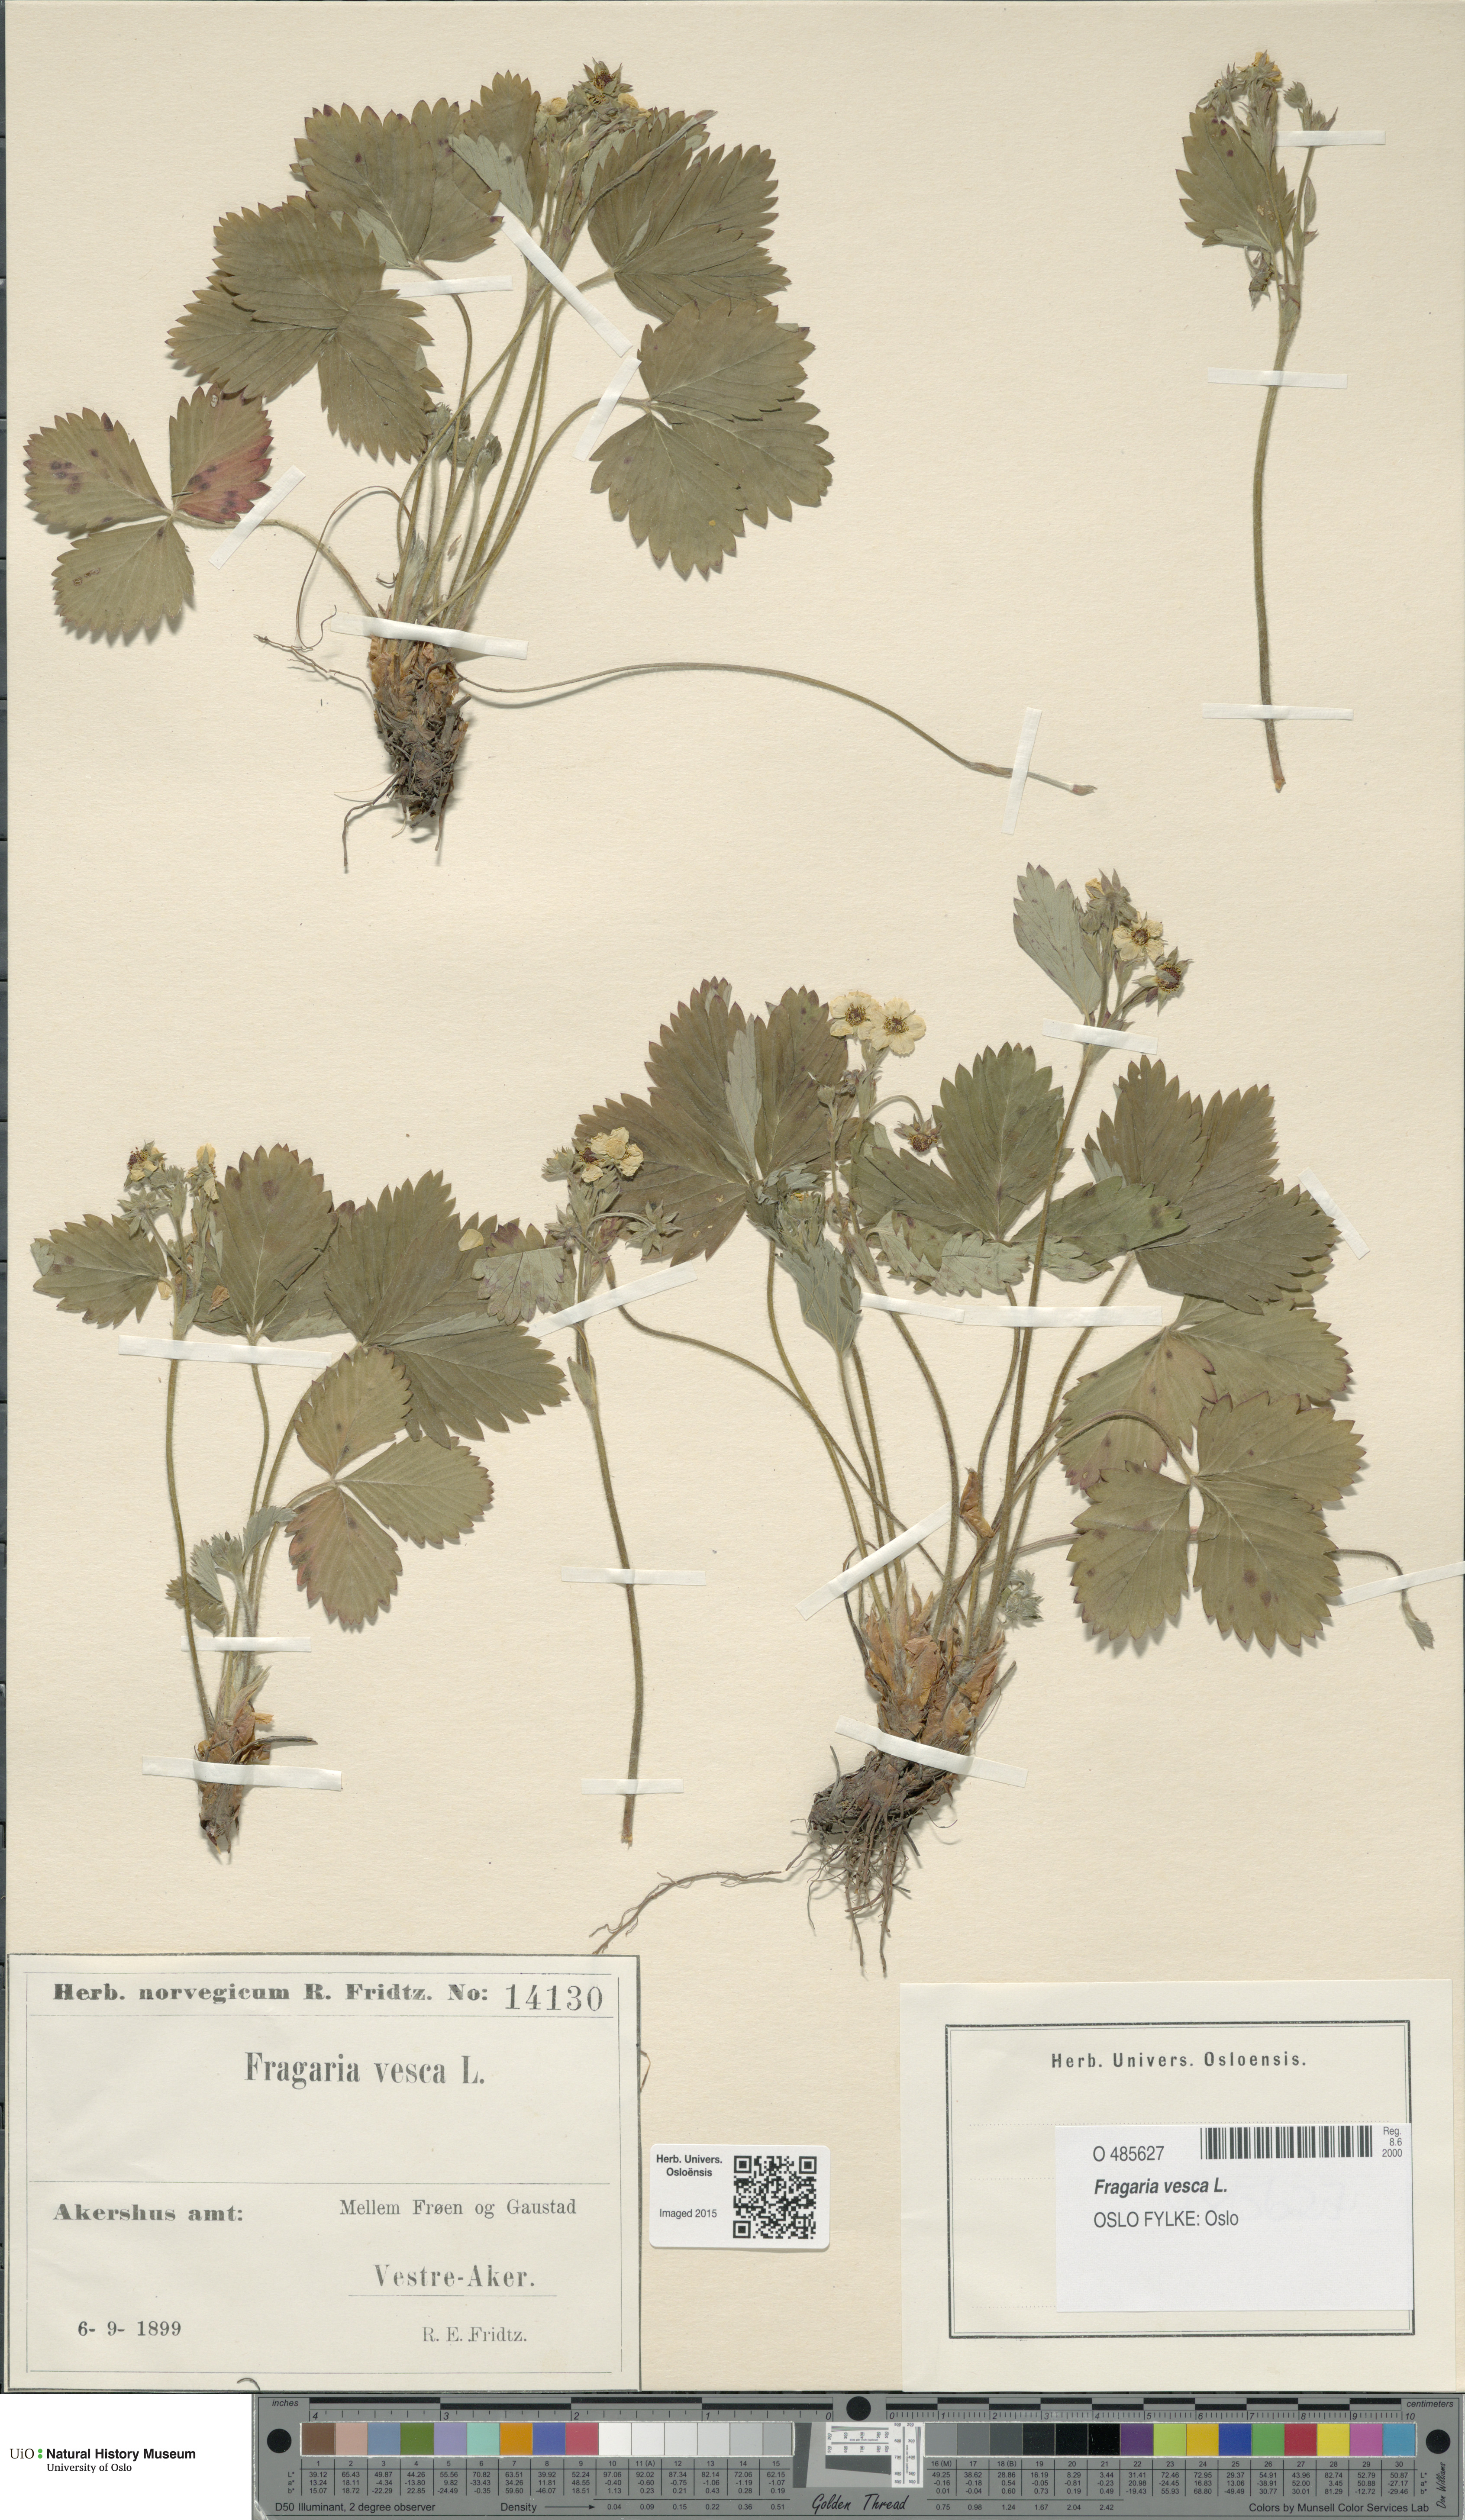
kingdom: Plantae
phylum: Tracheophyta
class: Magnoliopsida
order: Rosales
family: Rosaceae
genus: Fragaria
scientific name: Fragaria vesca
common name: Wild strawberry
